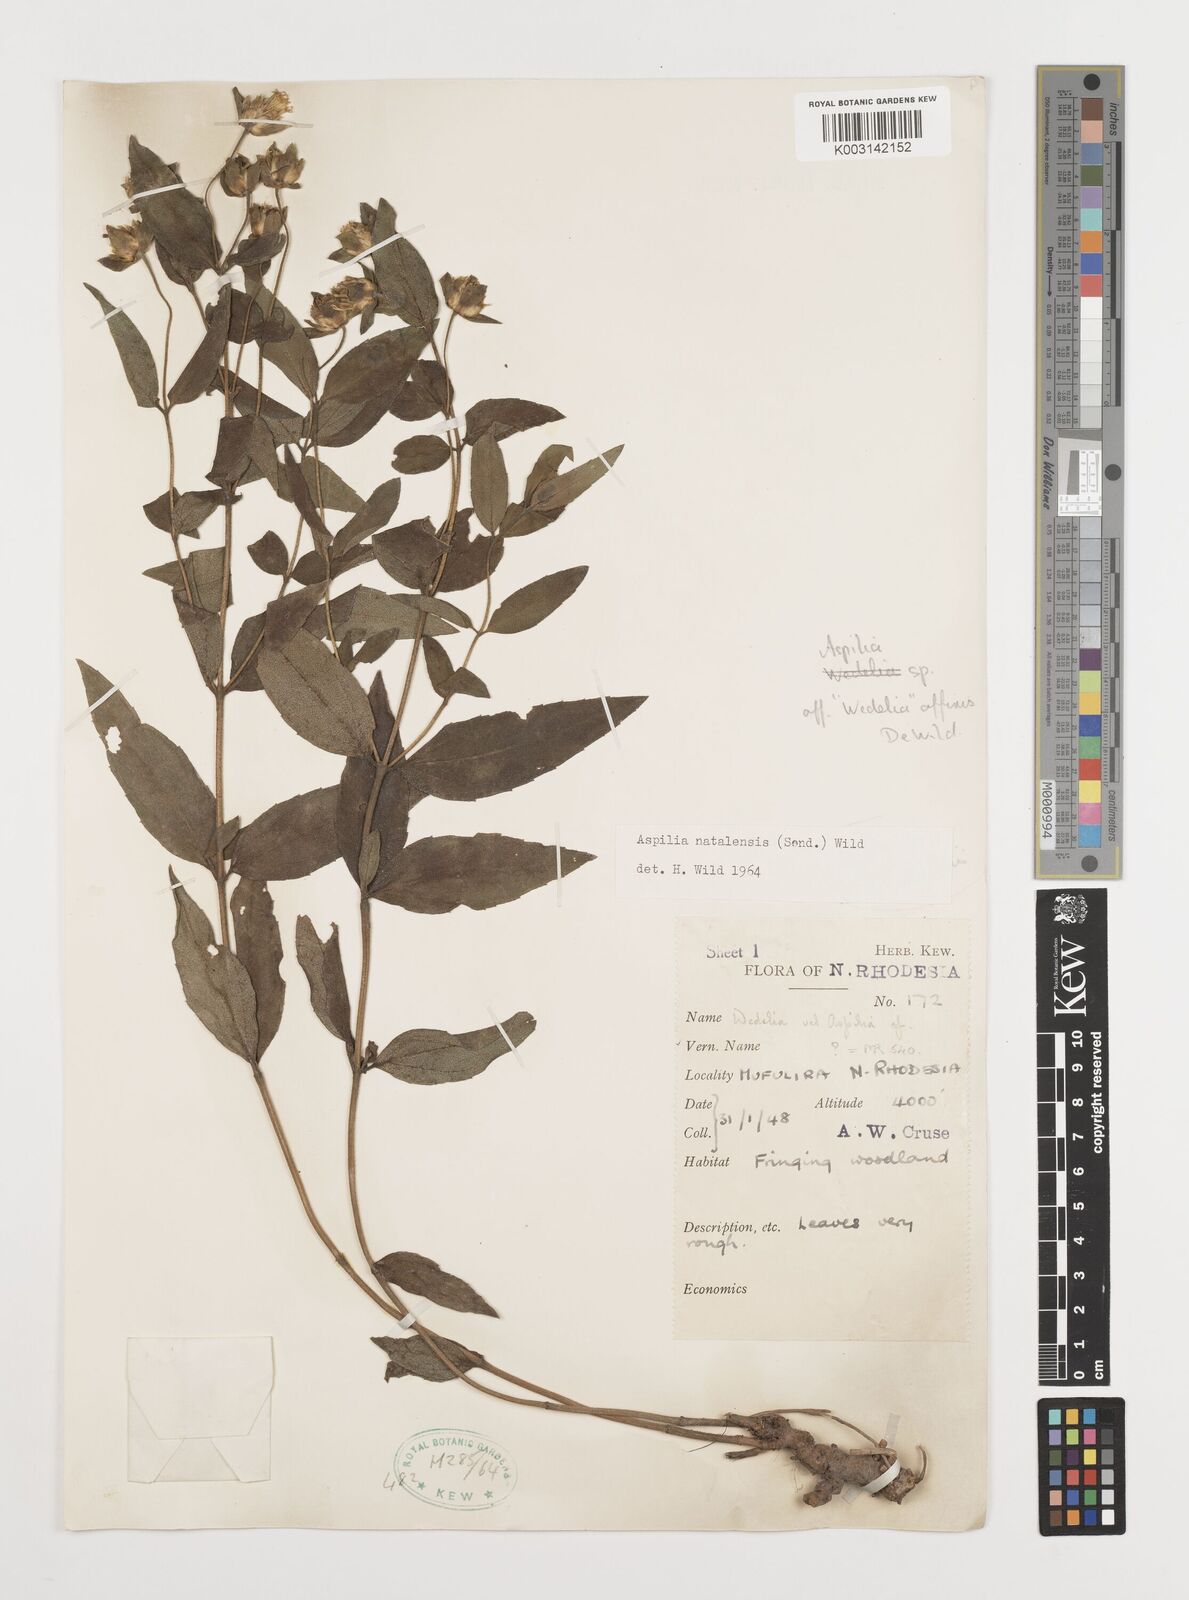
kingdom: Plantae
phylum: Tracheophyta
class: Magnoliopsida
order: Asterales
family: Asteraceae
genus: Aspilia
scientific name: Aspilia natalensis
